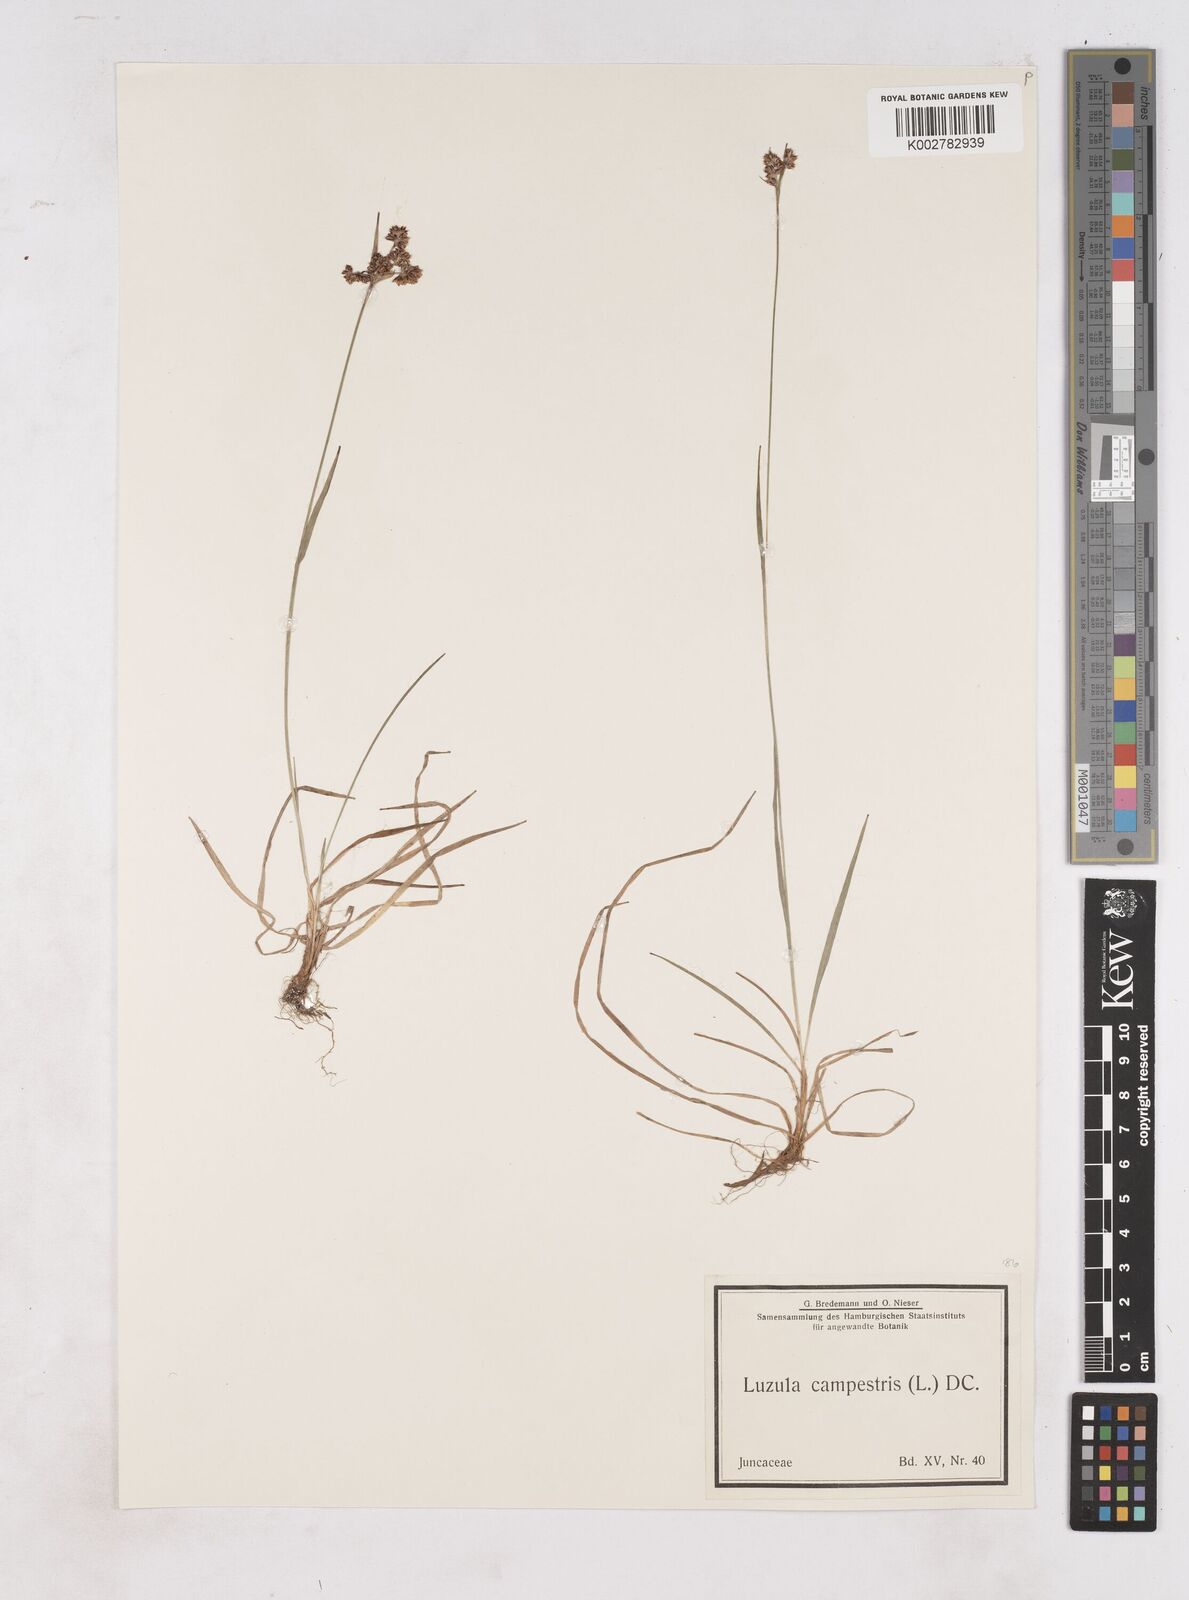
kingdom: Plantae
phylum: Tracheophyta
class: Liliopsida
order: Poales
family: Juncaceae
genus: Luzula
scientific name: Luzula campestris
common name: Field wood-rush
